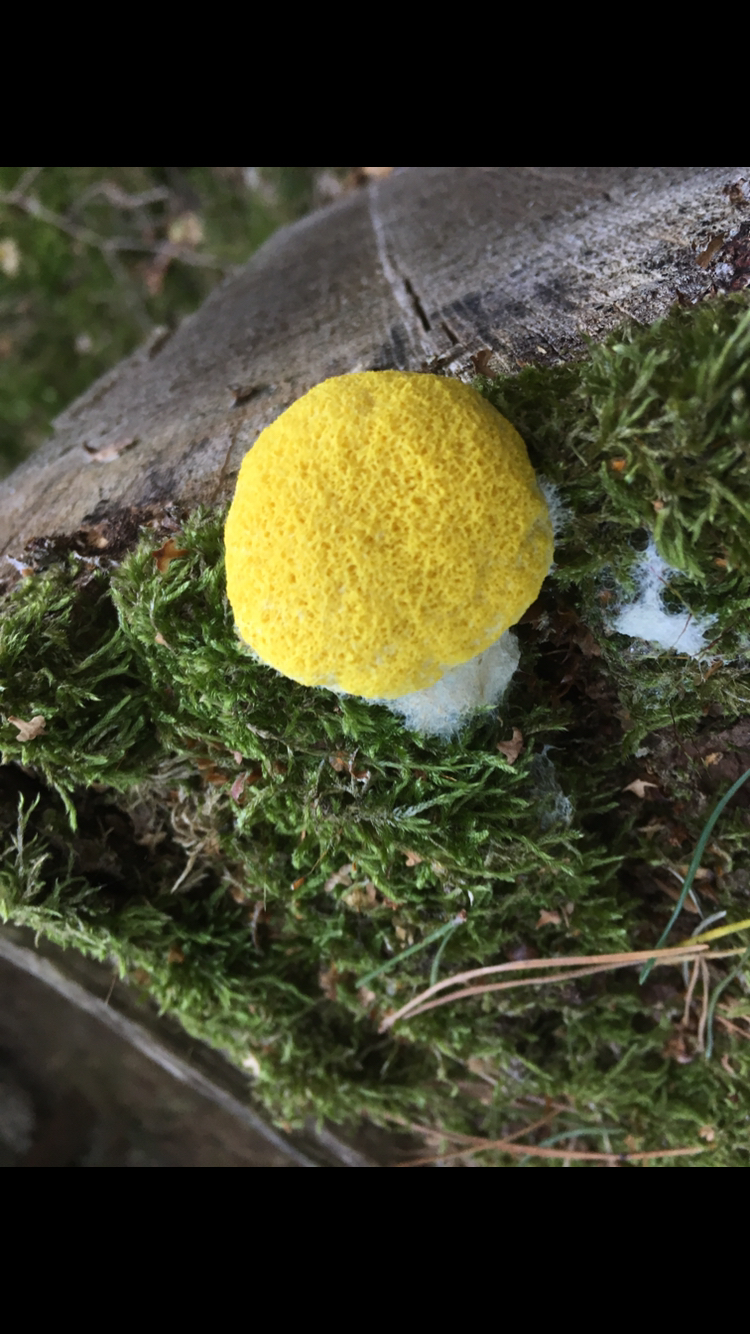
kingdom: Protozoa
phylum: Mycetozoa
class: Myxomycetes
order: Physarales
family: Physaraceae
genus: Fuligo
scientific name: Fuligo septica
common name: gul troldsmør
